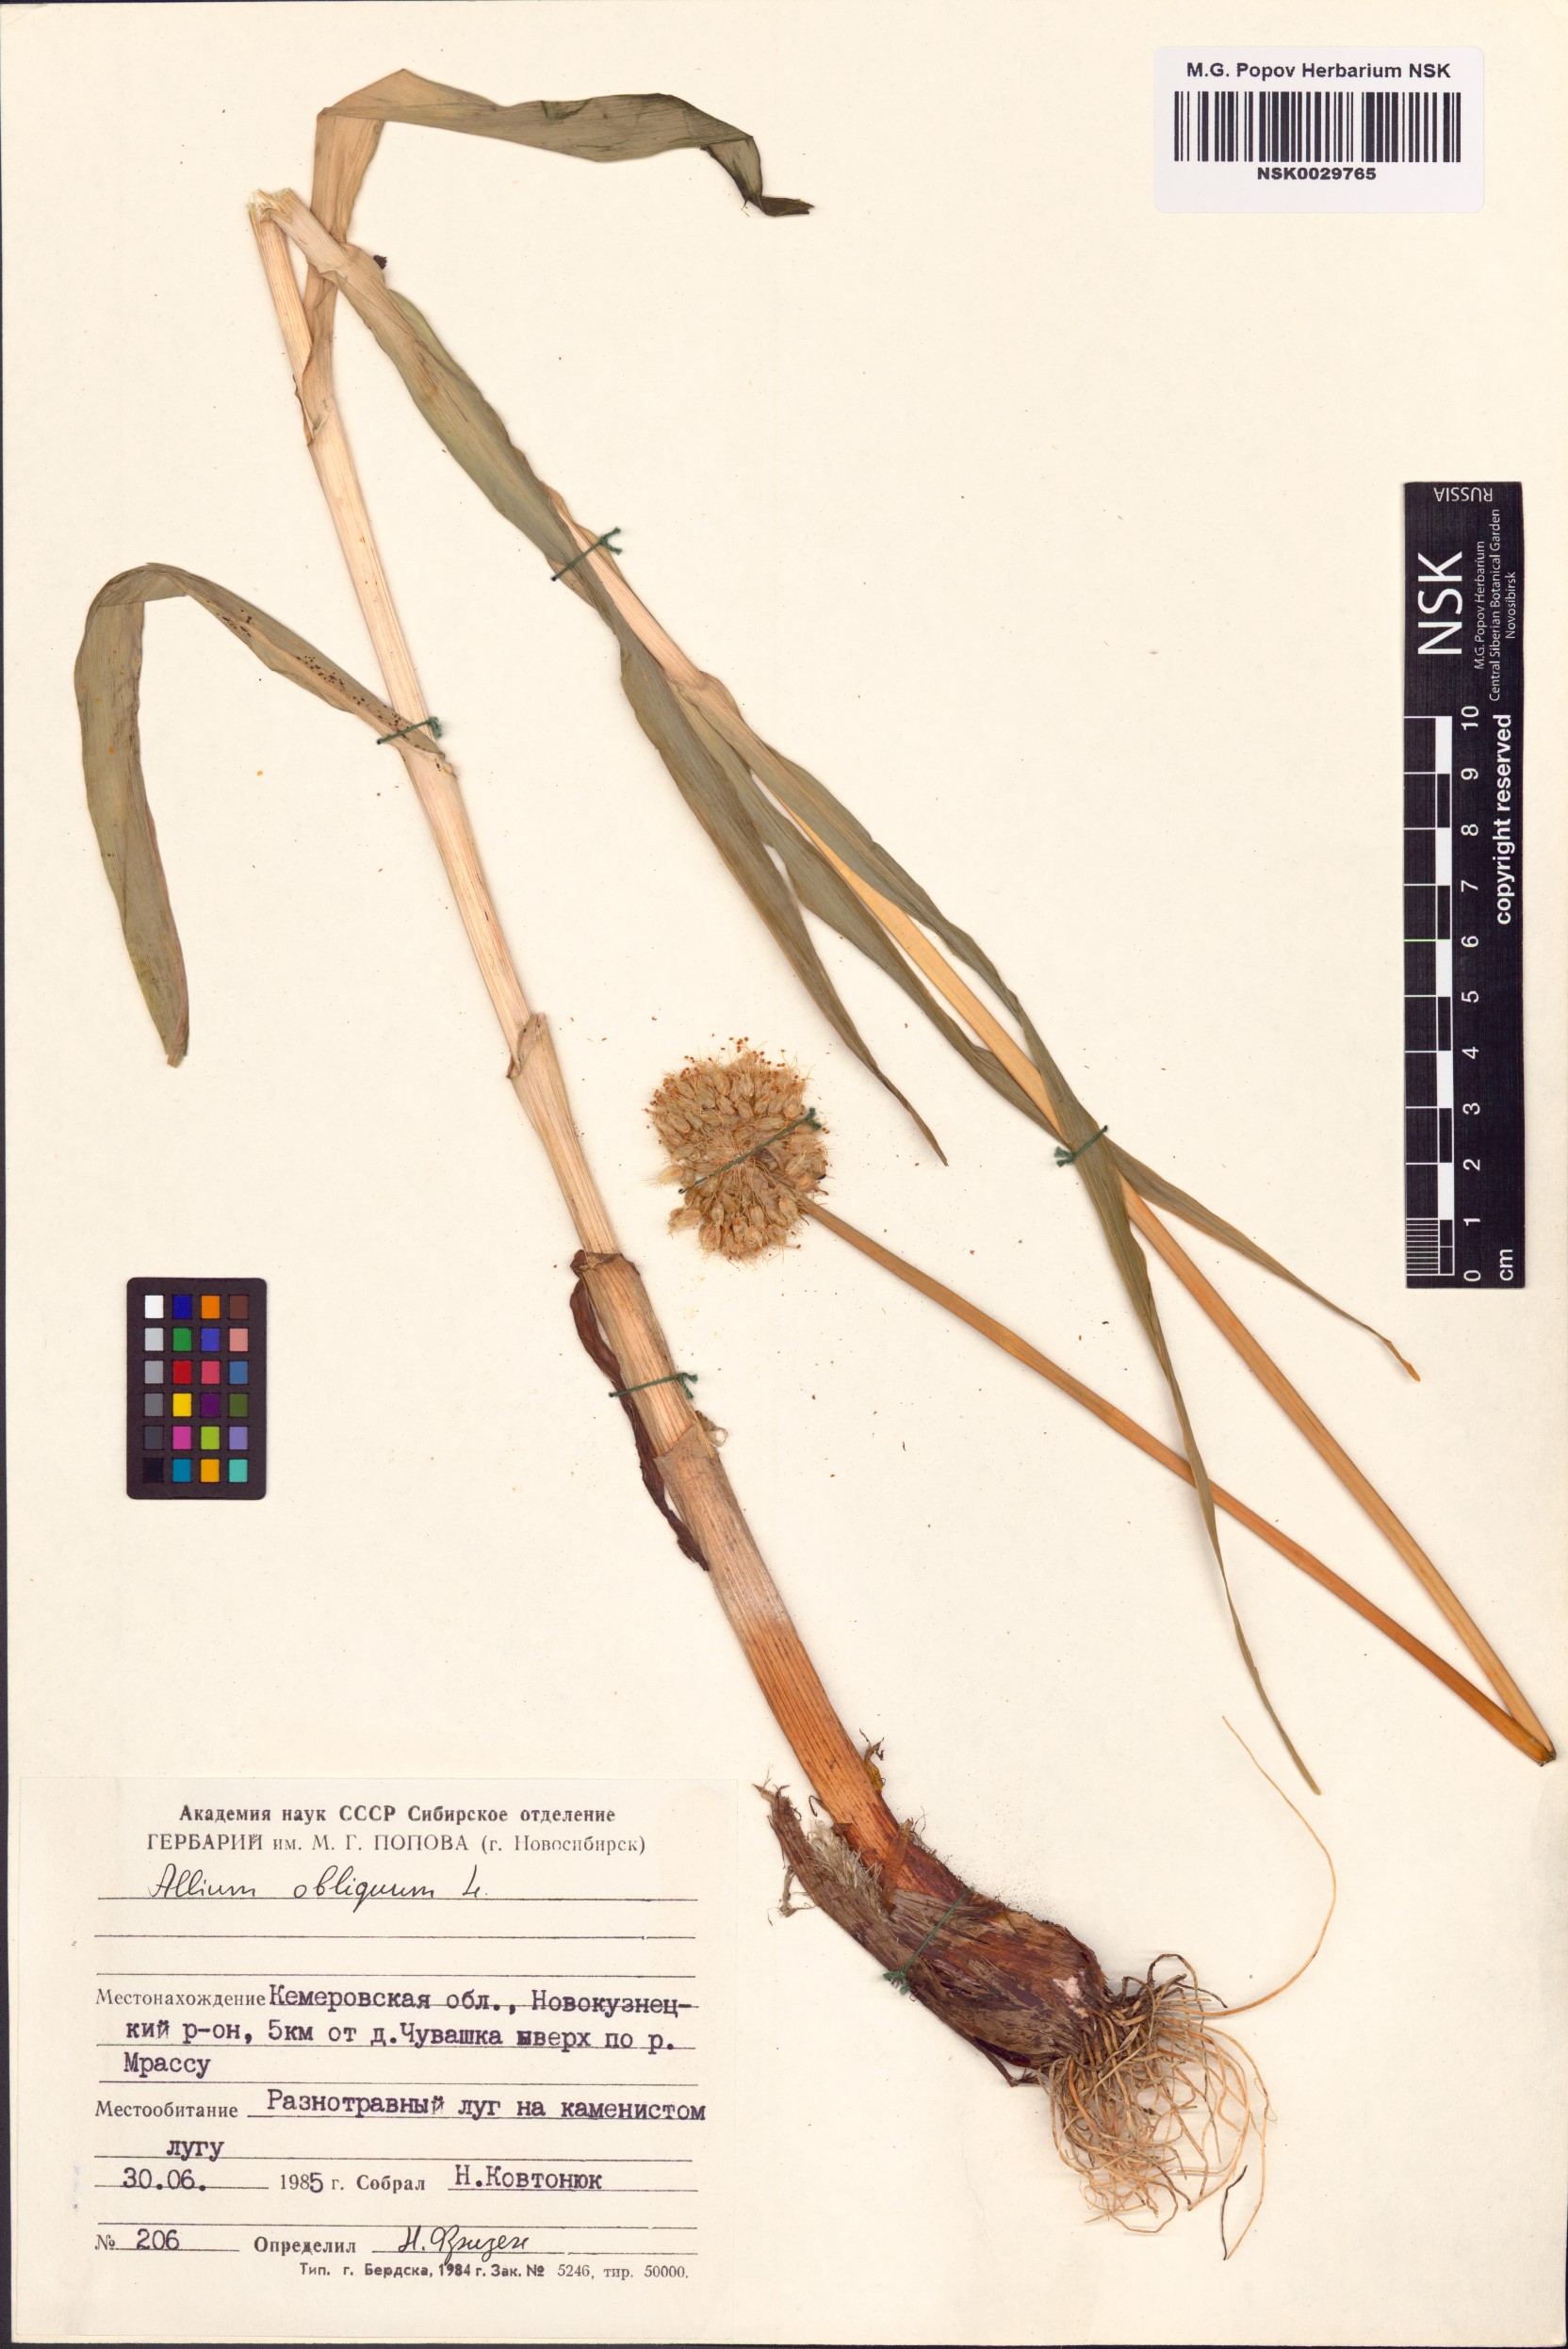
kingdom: Plantae
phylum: Tracheophyta
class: Liliopsida
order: Asparagales
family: Amaryllidaceae
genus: Allium
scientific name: Allium obliquum
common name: Oblique onion
